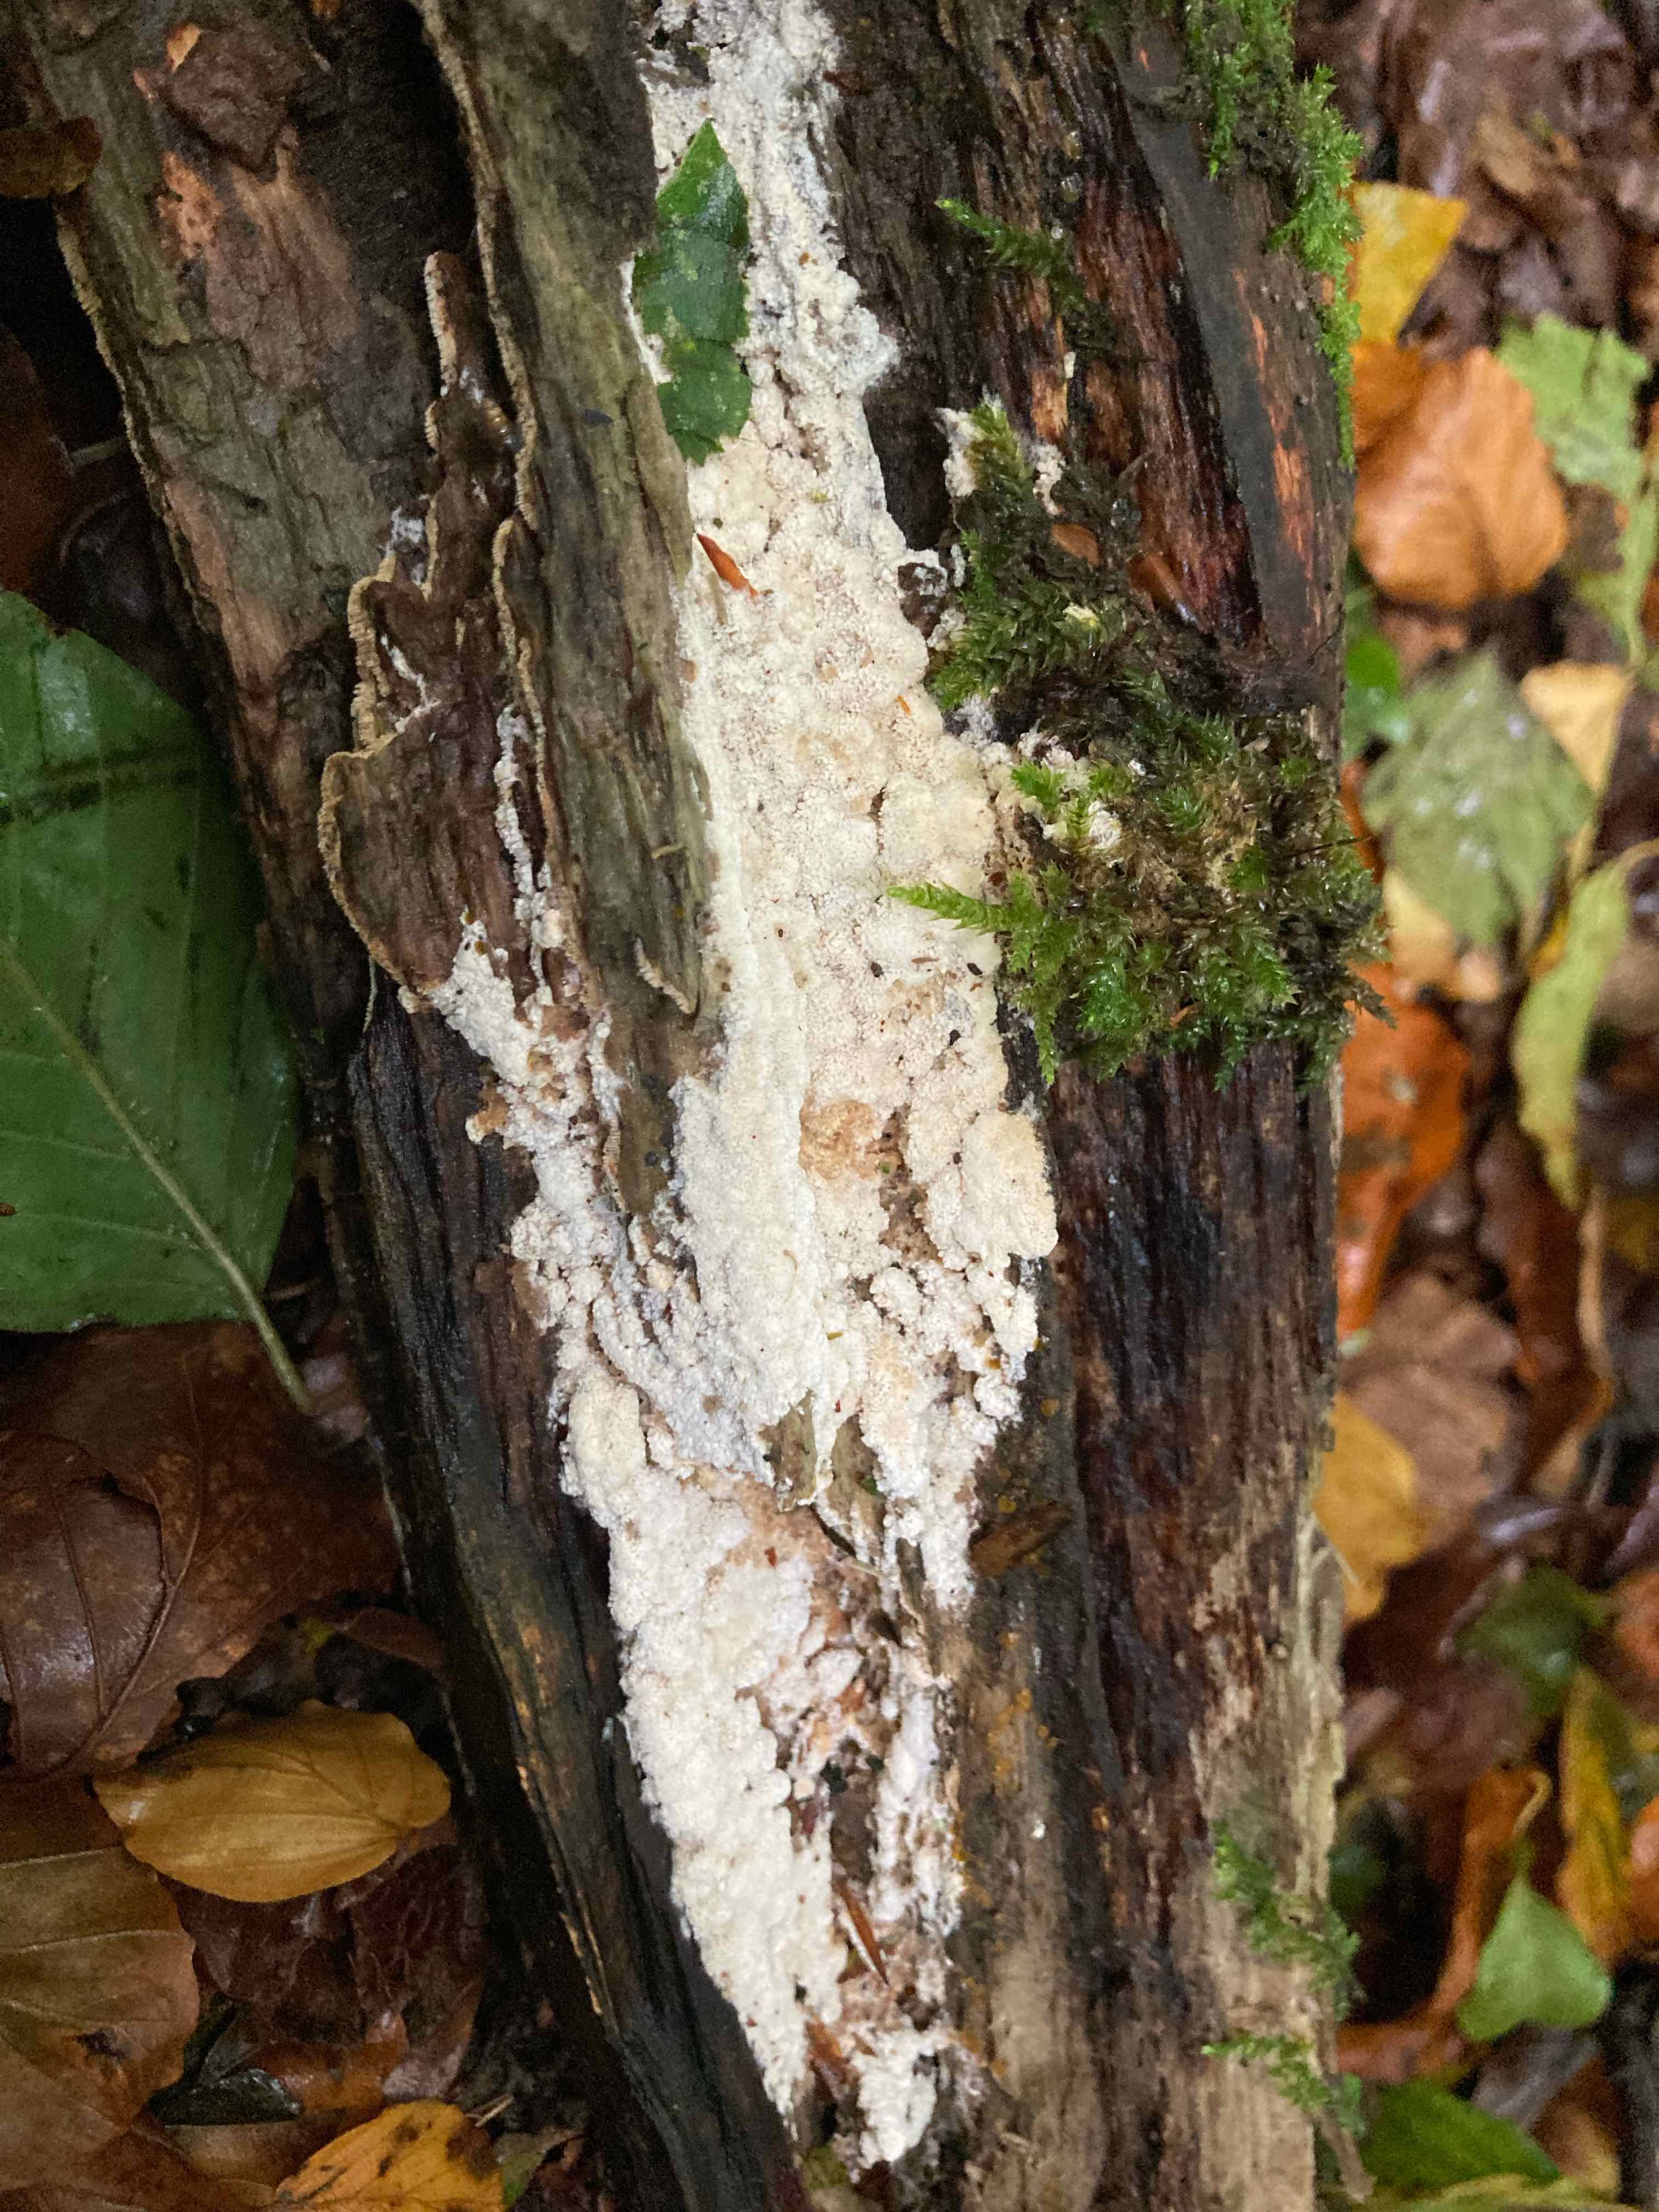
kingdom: Fungi
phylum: Basidiomycota
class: Agaricomycetes
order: Polyporales
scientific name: Polyporales
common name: poresvampordenen
